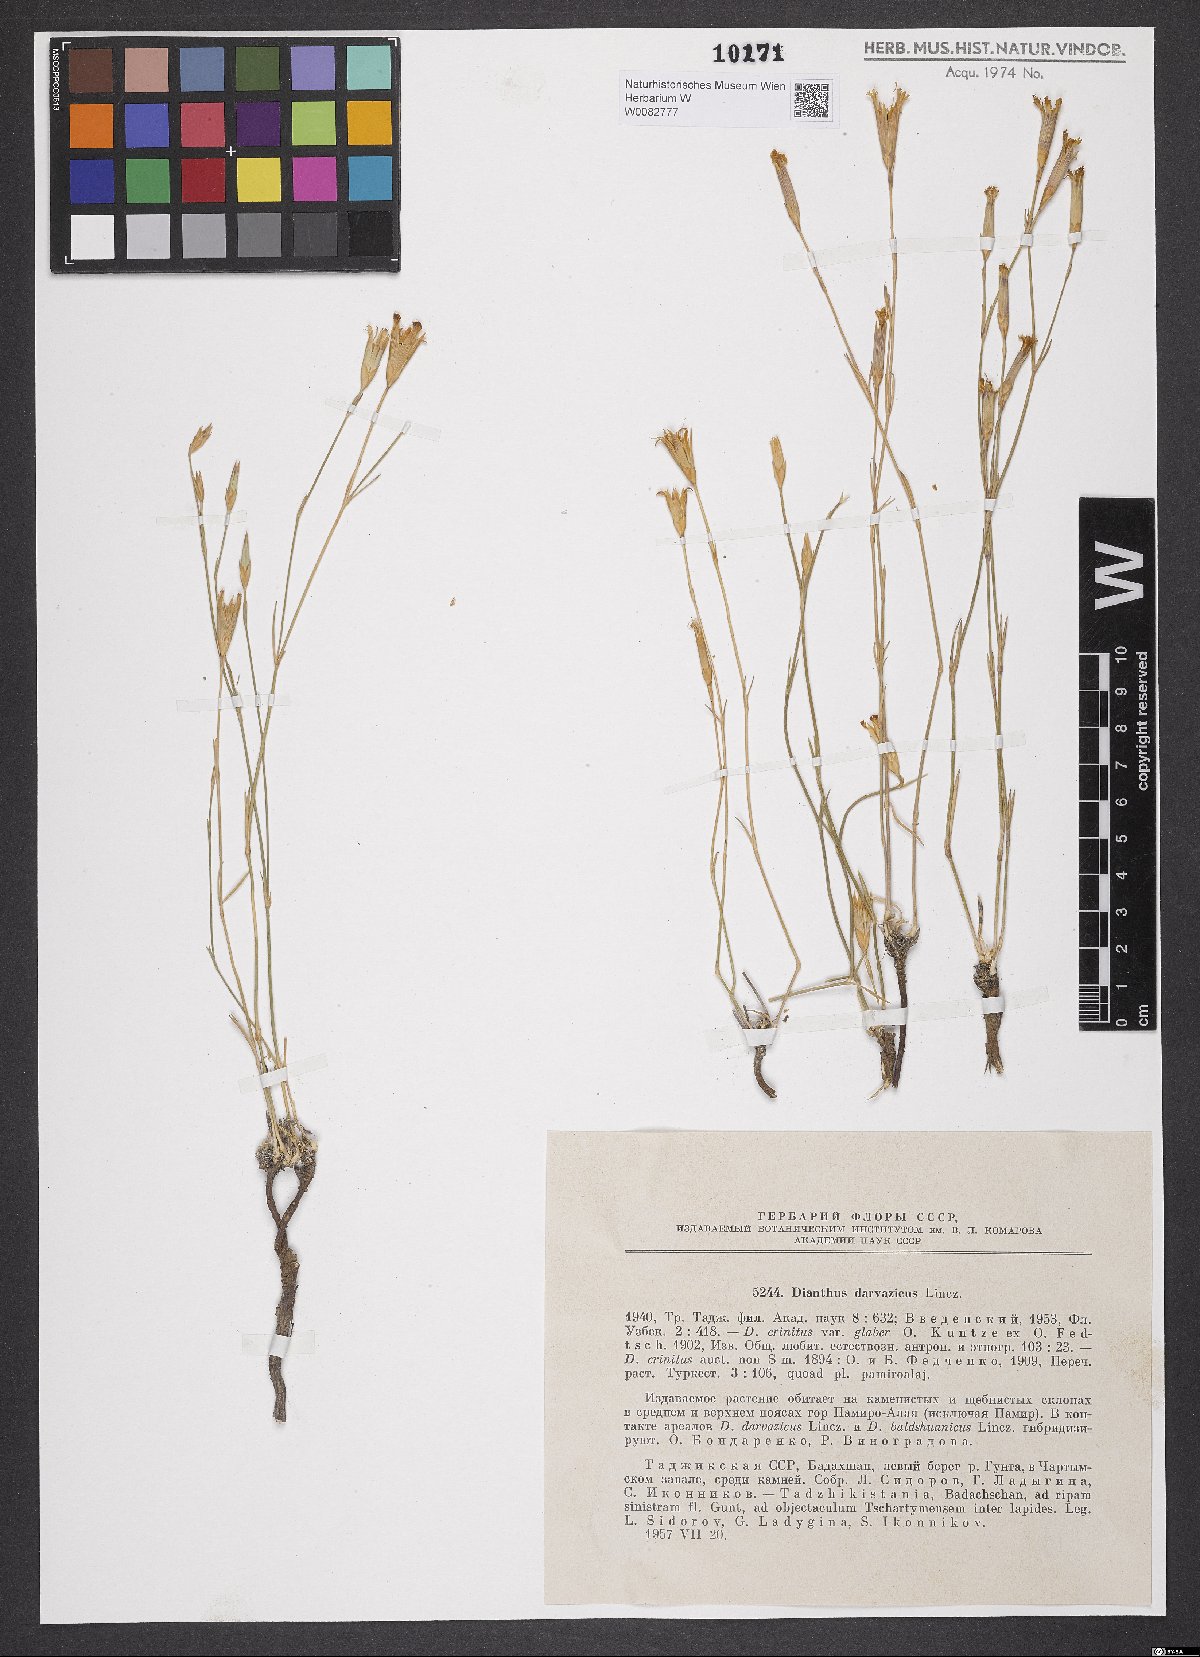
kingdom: Plantae
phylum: Tracheophyta
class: Magnoliopsida
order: Caryophyllales
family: Caryophyllaceae
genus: Dianthus
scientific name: Dianthus darvazicus
